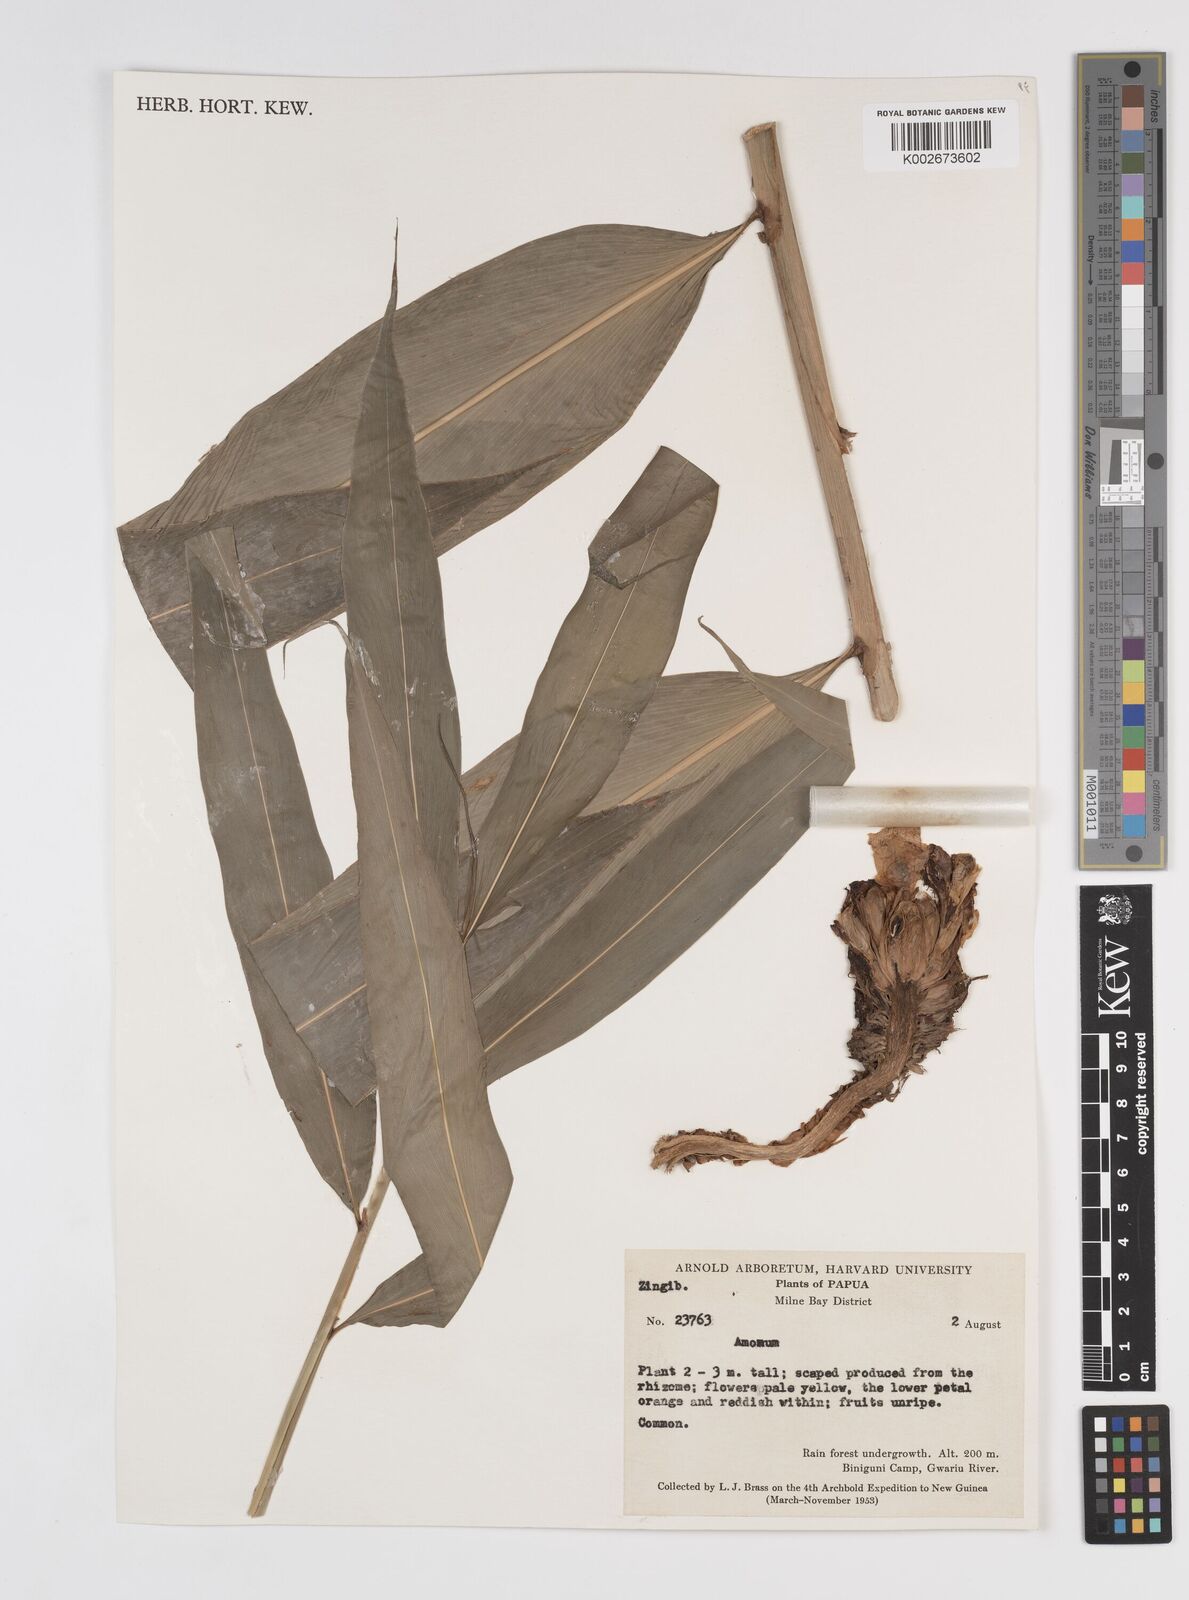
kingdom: Plantae
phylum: Tracheophyta
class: Liliopsida
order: Zingiberales
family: Zingiberaceae
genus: Amomum
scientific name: Amomum
